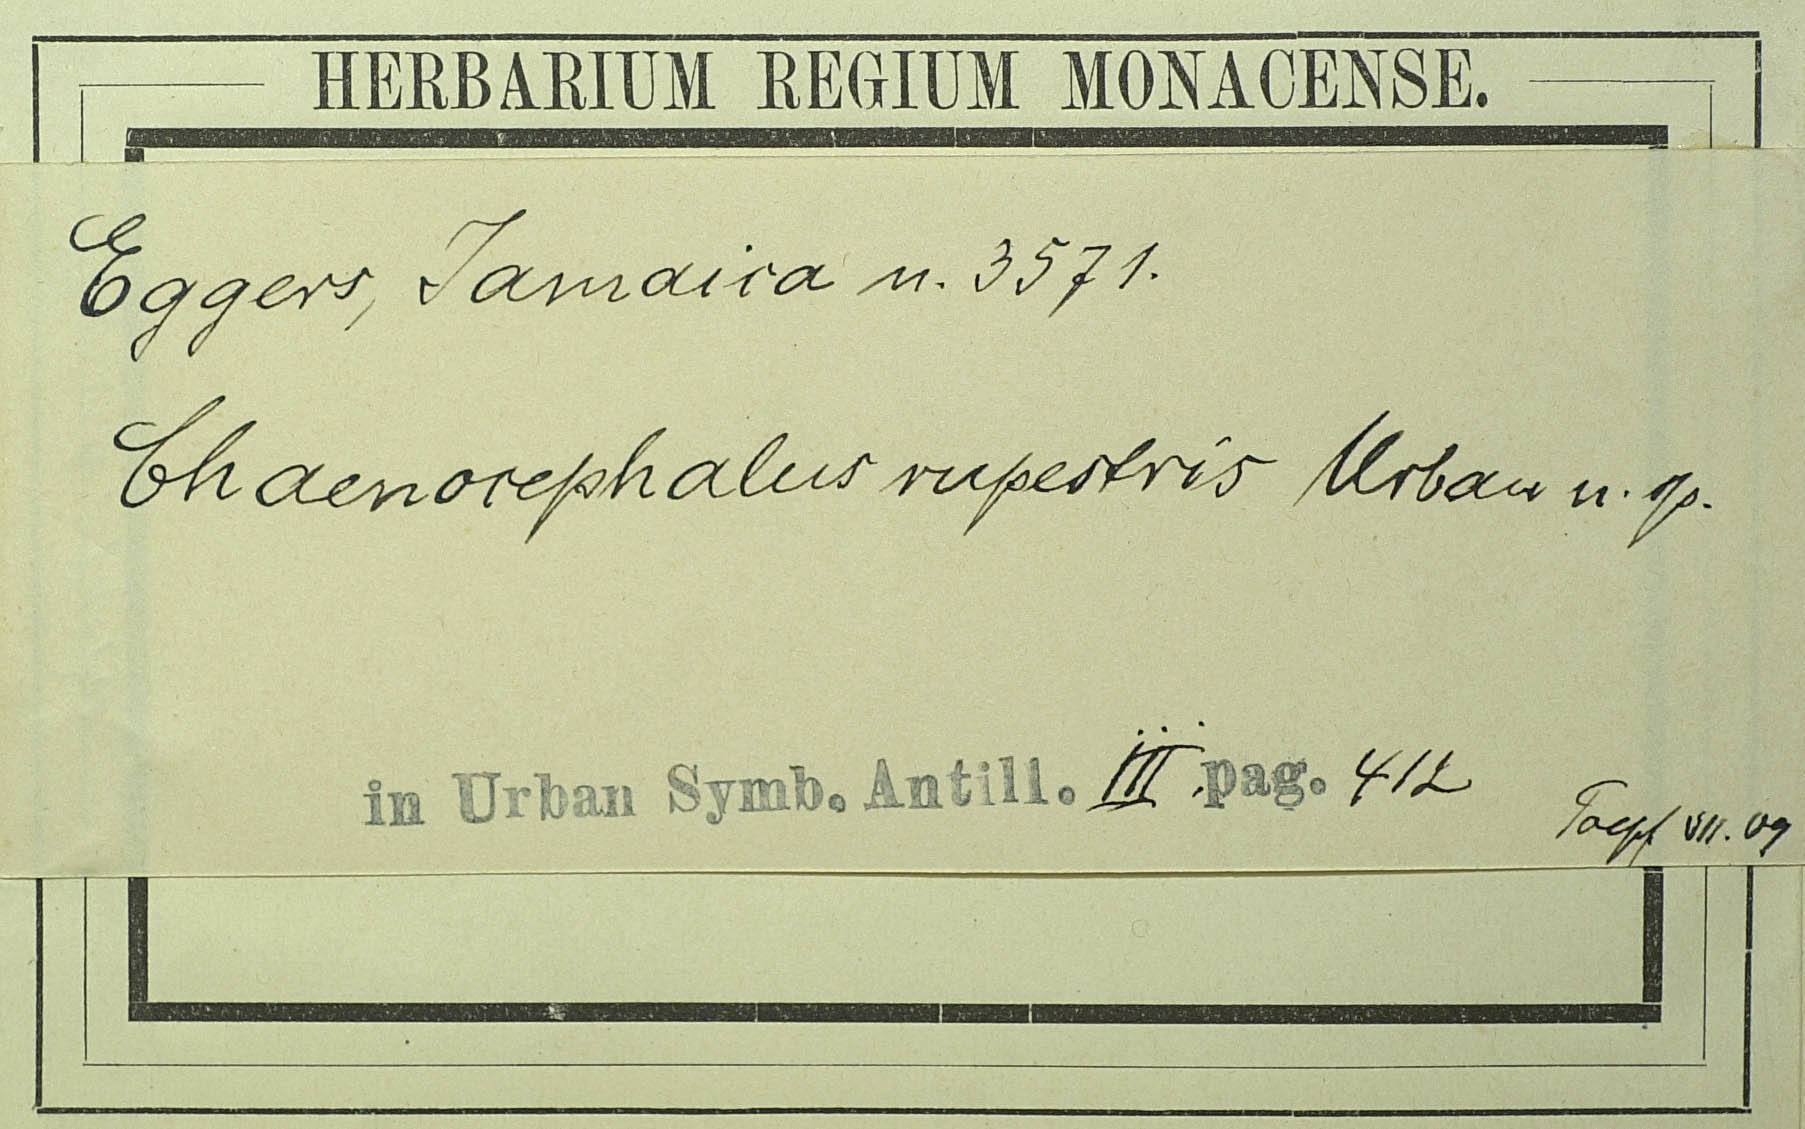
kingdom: Plantae
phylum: Tracheophyta
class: Magnoliopsida
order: Asterales
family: Asteraceae
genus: Verbesina
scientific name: Verbesina rupestris
